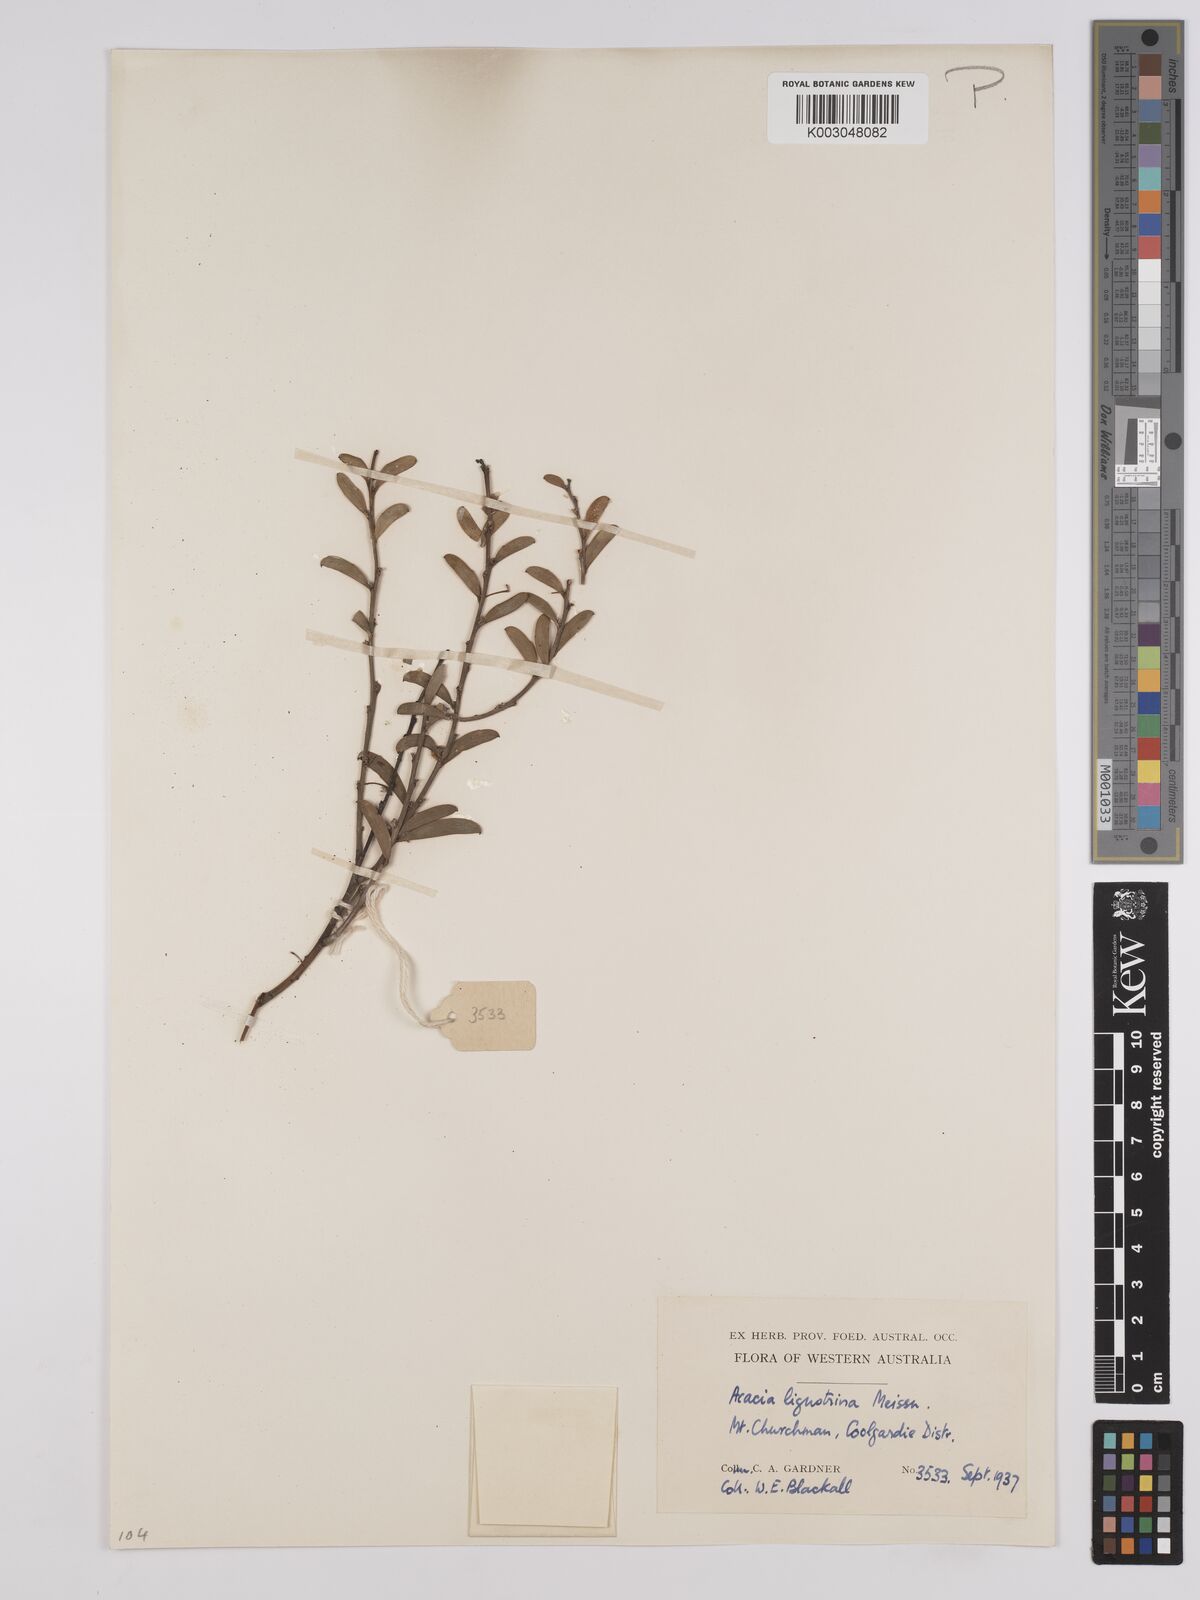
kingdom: Plantae
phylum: Tracheophyta
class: Magnoliopsida
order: Fabales
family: Fabaceae
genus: Acacia
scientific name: Acacia ligustrina
